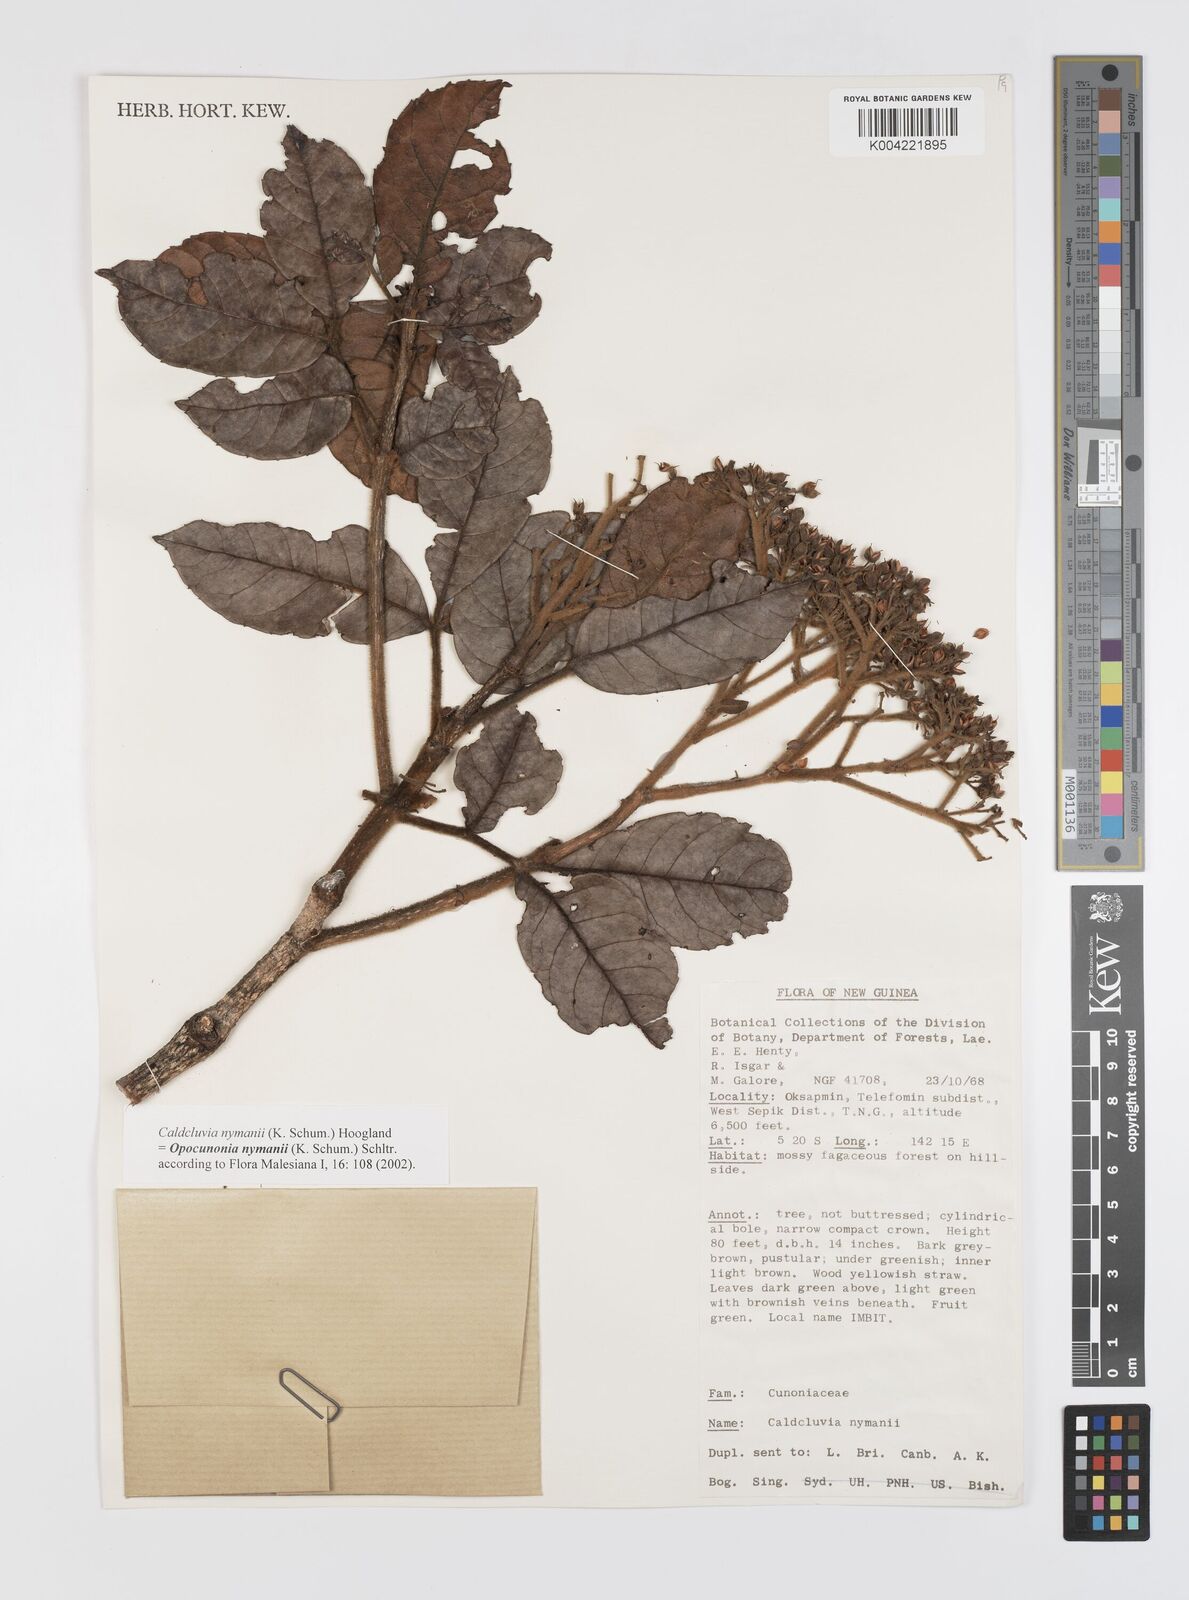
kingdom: Plantae
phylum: Tracheophyta
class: Magnoliopsida
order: Oxalidales
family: Cunoniaceae
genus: Opocunonia
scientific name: Opocunonia nymanii
